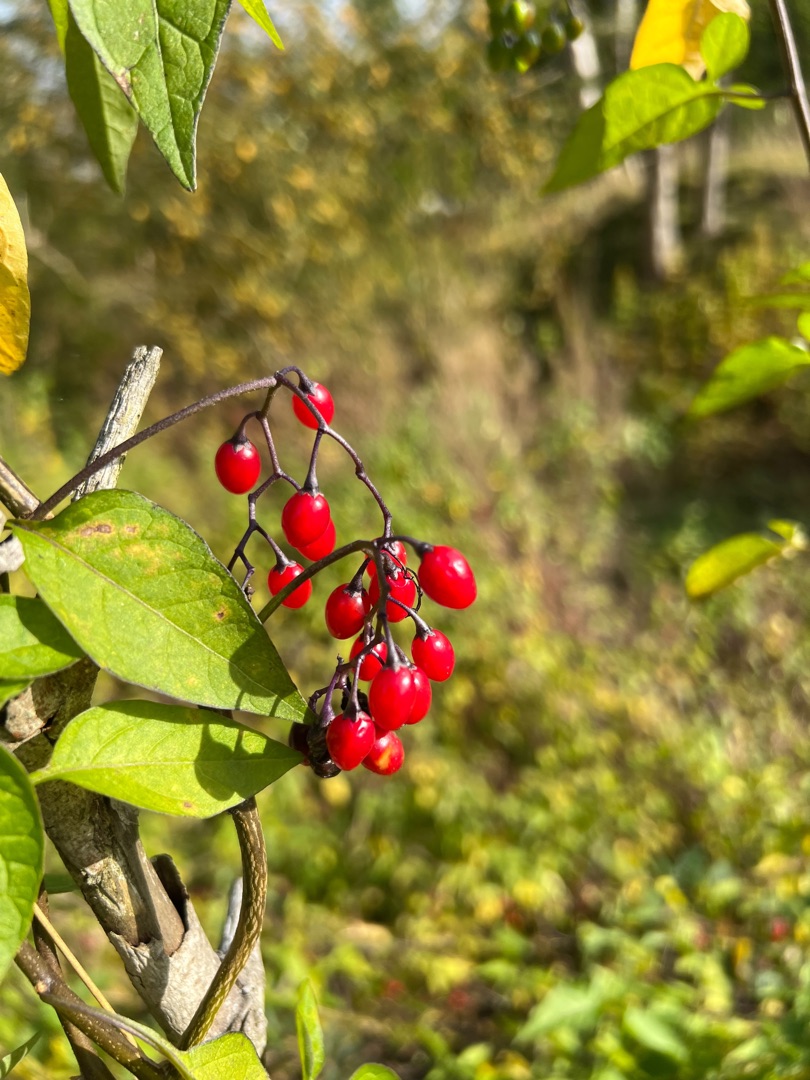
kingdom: Plantae
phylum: Tracheophyta
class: Magnoliopsida
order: Solanales
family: Solanaceae
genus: Solanum
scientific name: Solanum dulcamara
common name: Bittersød natskygge
